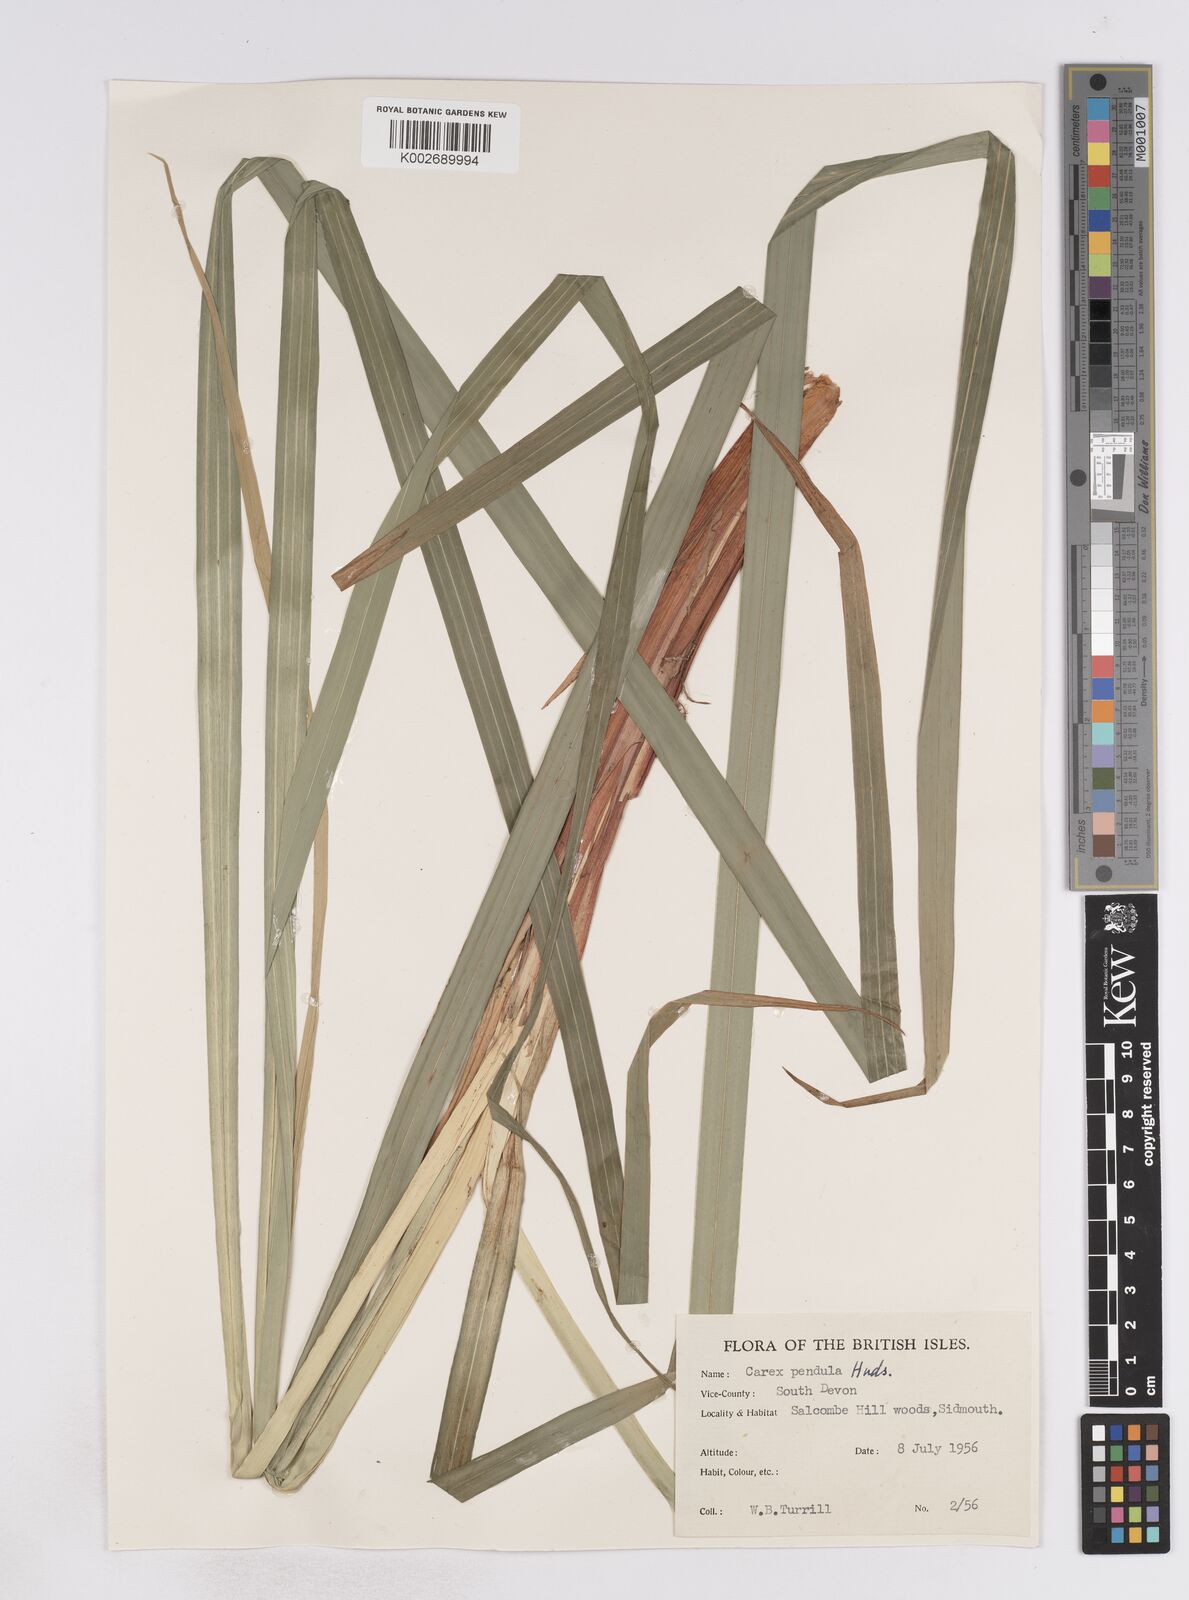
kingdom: Plantae
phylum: Tracheophyta
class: Liliopsida
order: Poales
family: Cyperaceae
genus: Carex
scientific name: Carex pendula
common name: Pendulous sedge
